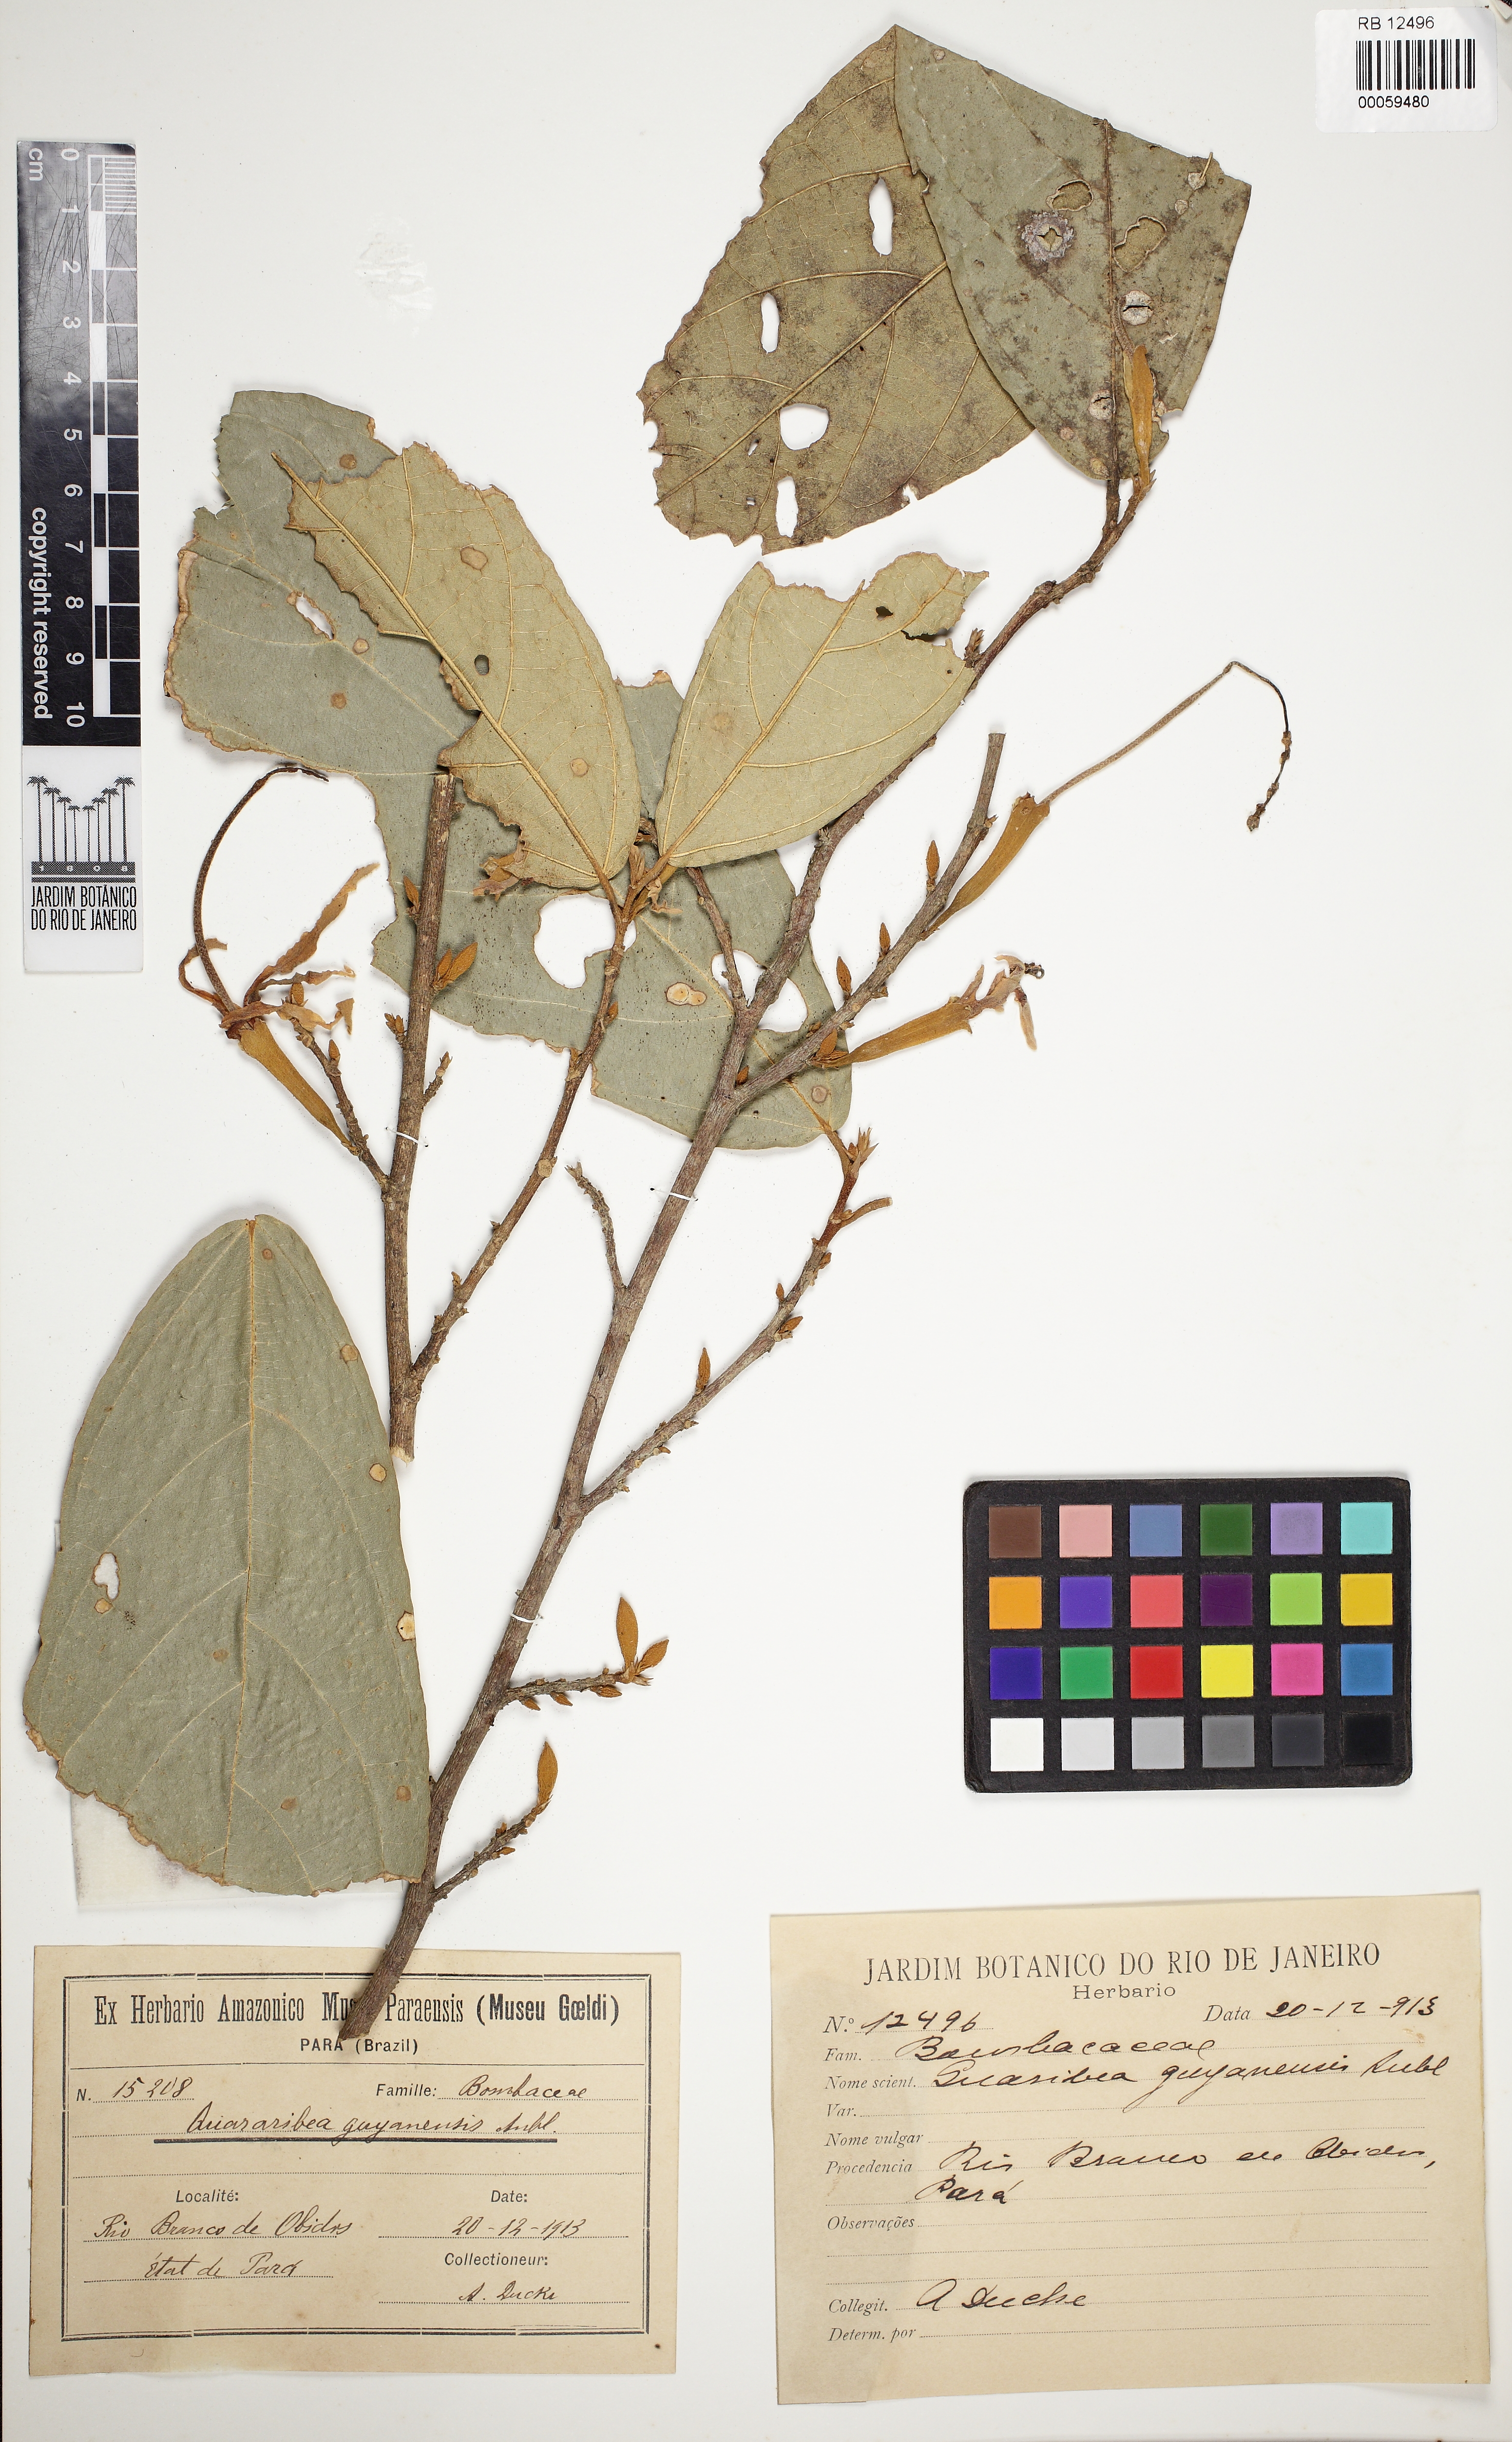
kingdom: Plantae
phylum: Tracheophyta
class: Magnoliopsida
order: Malvales
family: Malvaceae
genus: Quararibea
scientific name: Quararibea guianensis
